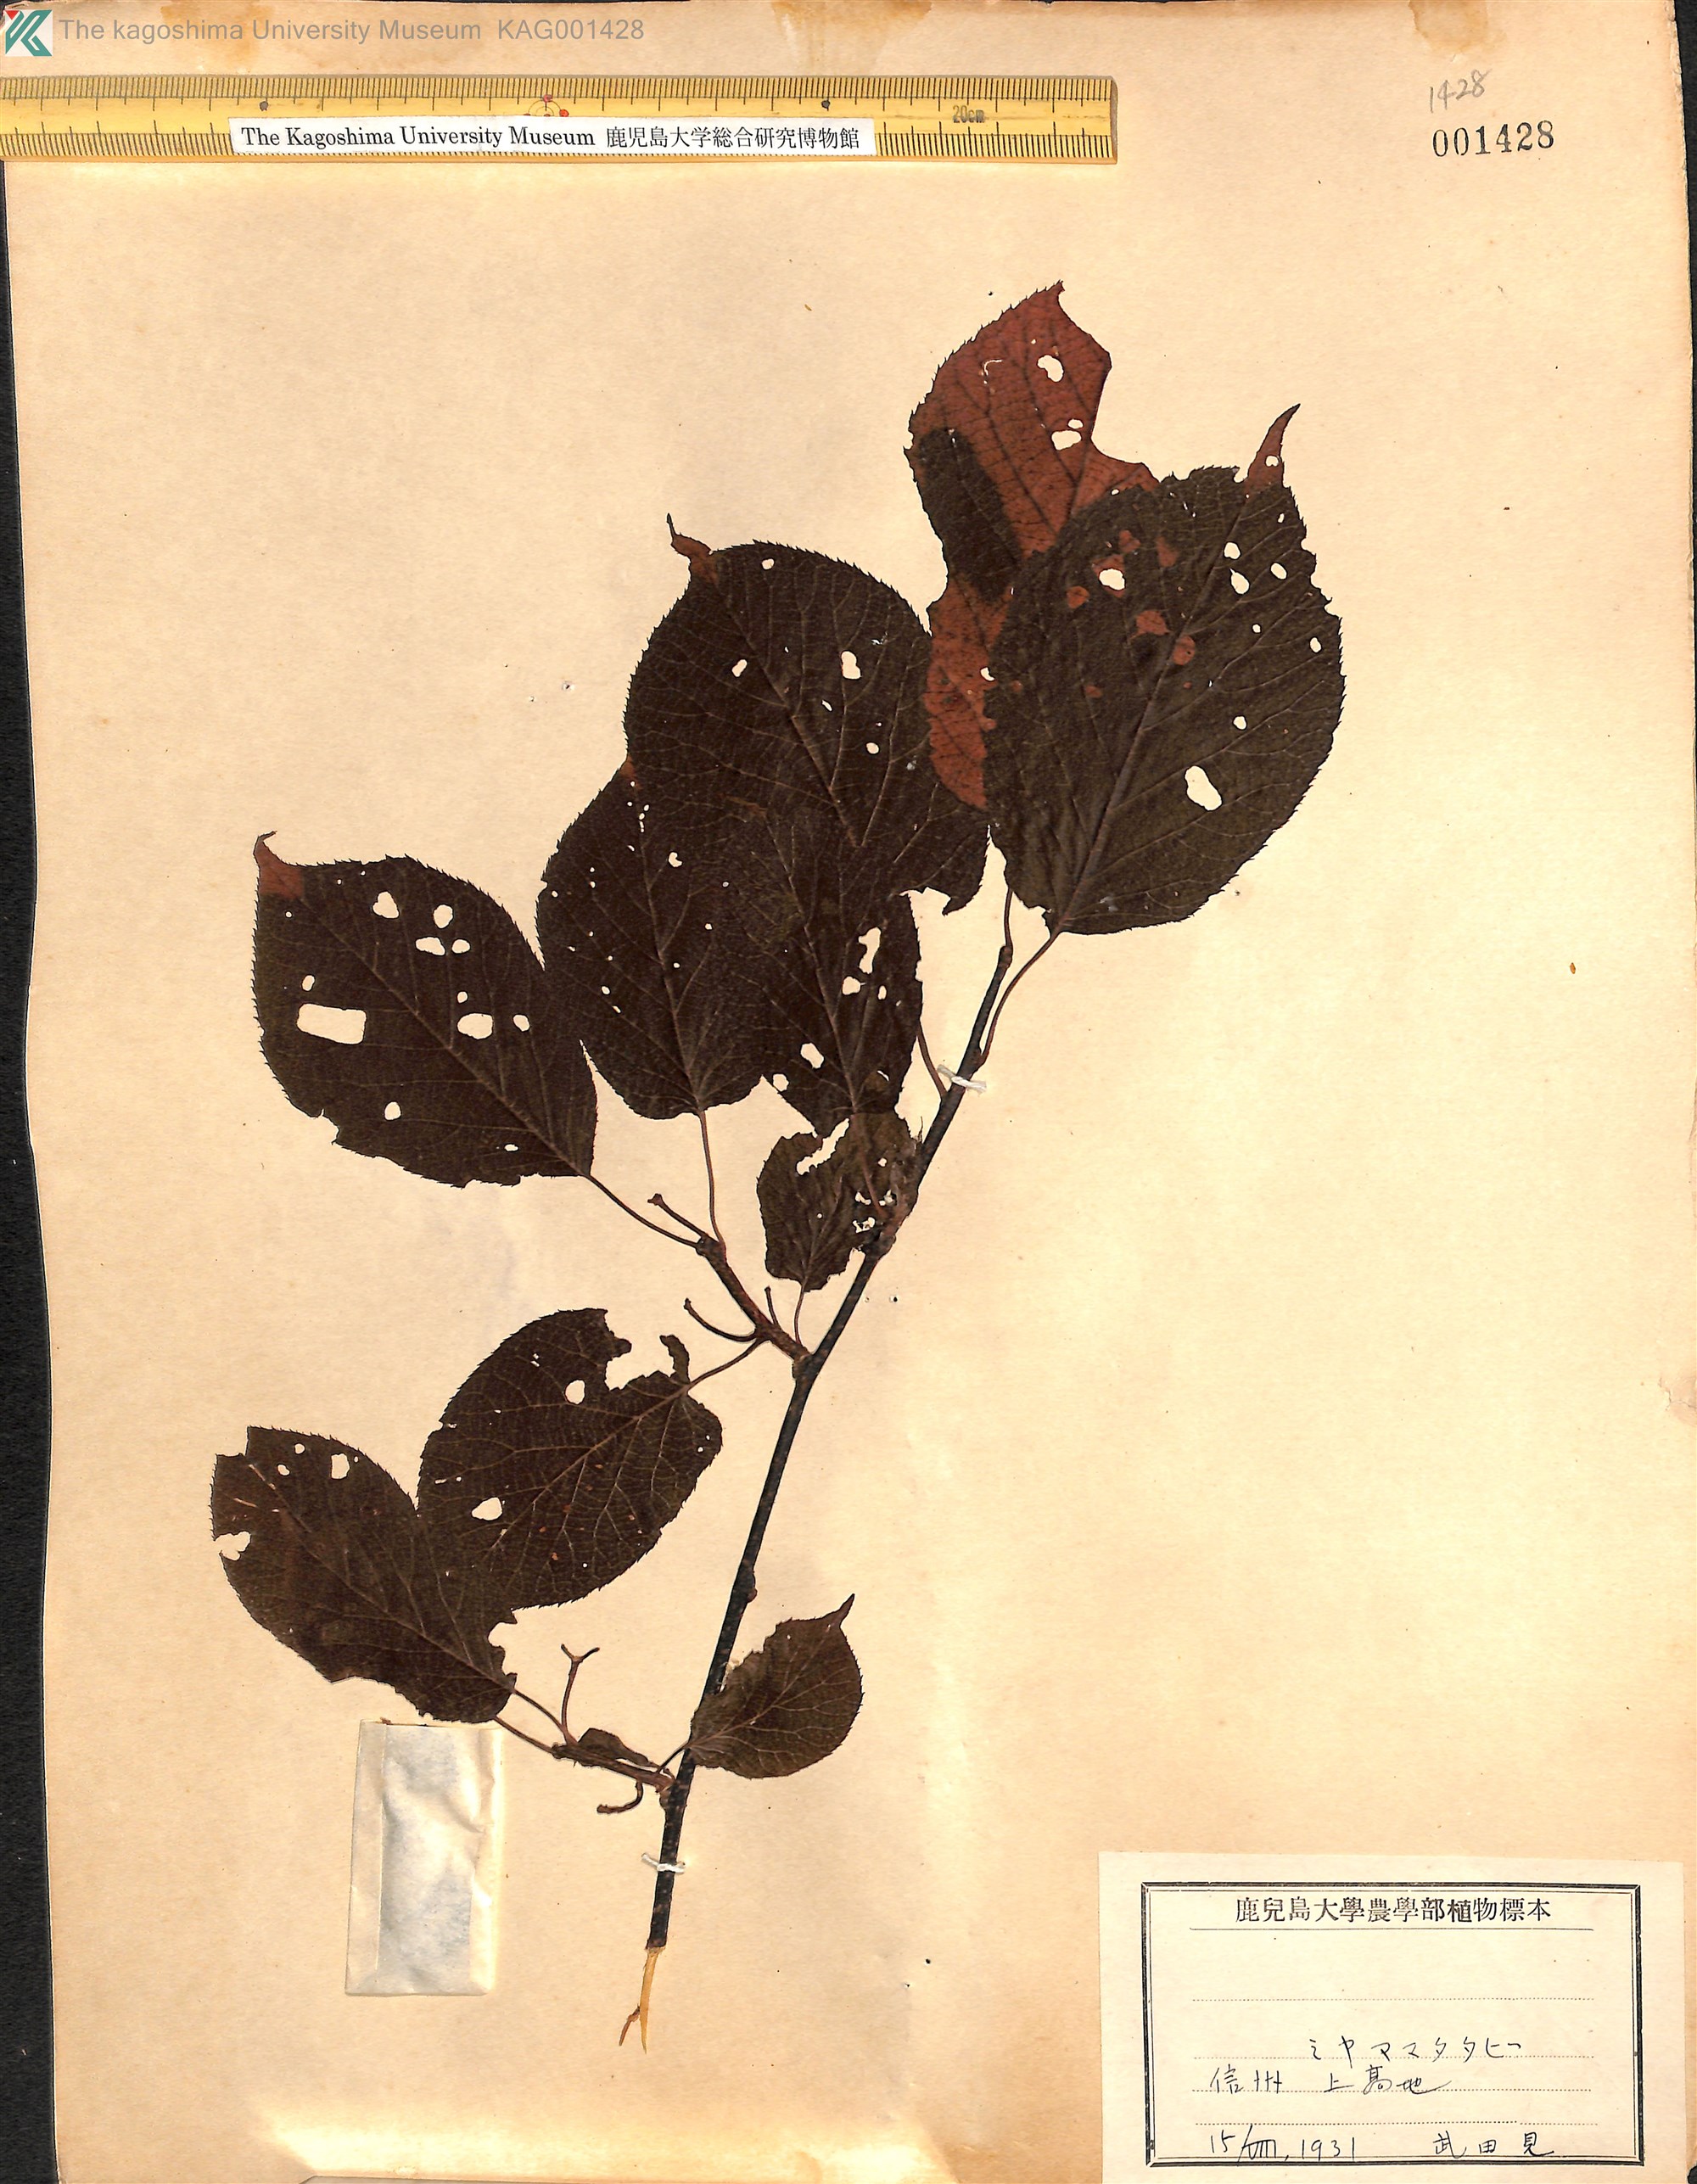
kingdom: Plantae
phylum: Tracheophyta
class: Magnoliopsida
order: Ericales
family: Actinidiaceae
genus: Actinidia
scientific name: Actinidia kolomikta
